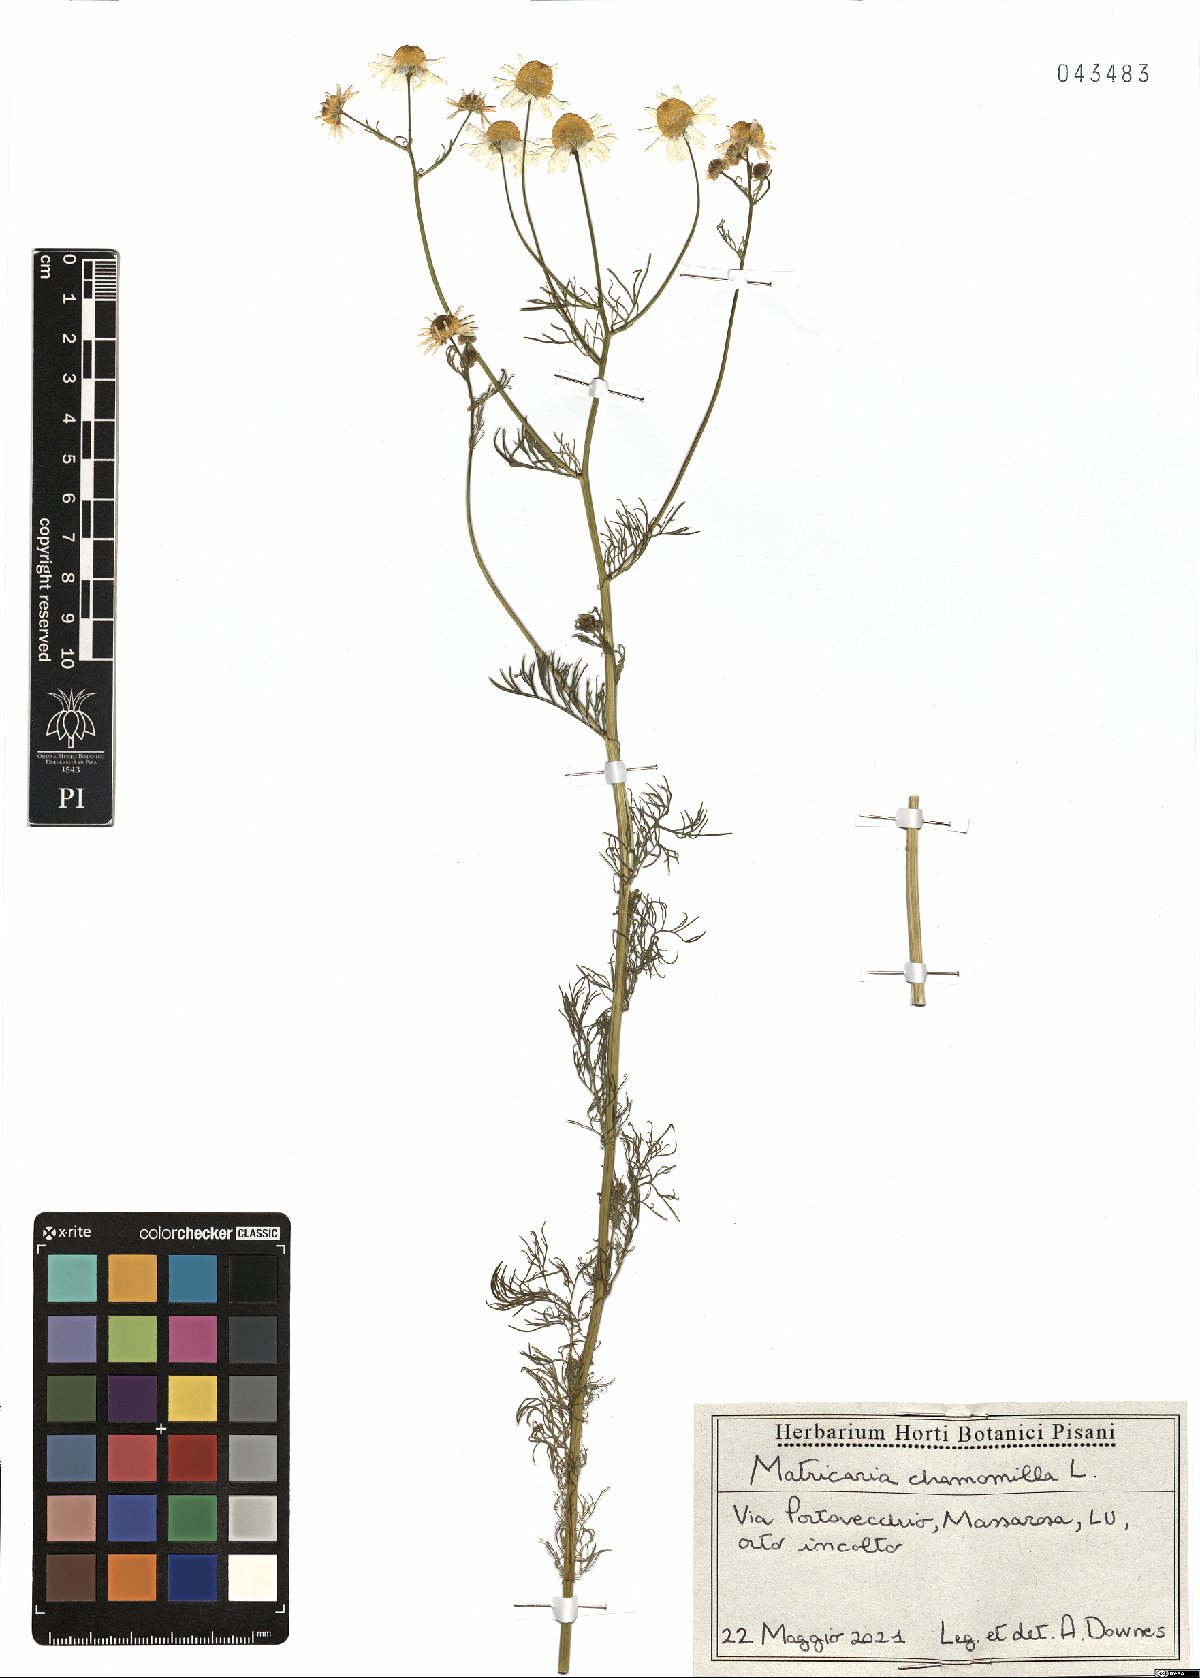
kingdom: Plantae
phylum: Tracheophyta
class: Magnoliopsida
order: Asterales
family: Asteraceae
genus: Matricaria
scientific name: Matricaria chamomilla
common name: Scented mayweed
